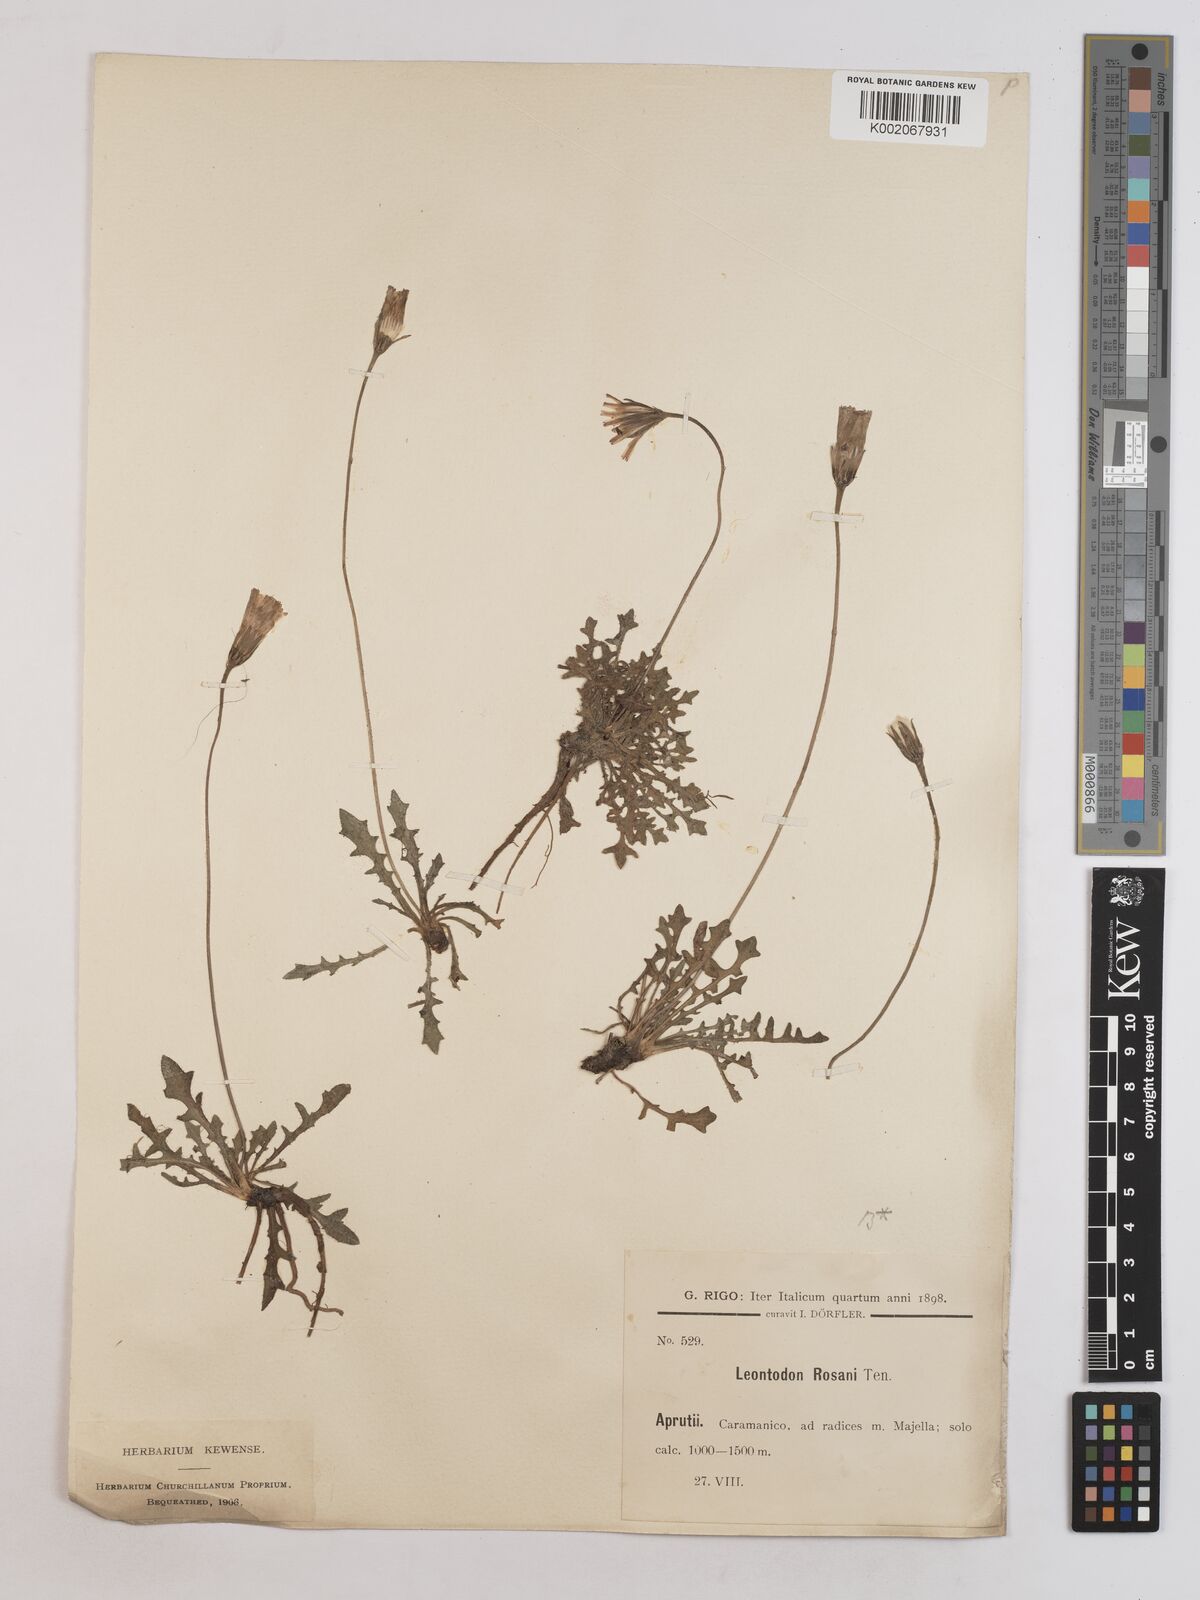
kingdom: Plantae
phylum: Tracheophyta
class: Magnoliopsida
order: Asterales
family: Asteraceae
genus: Leontodon
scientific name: Leontodon rosanoi
